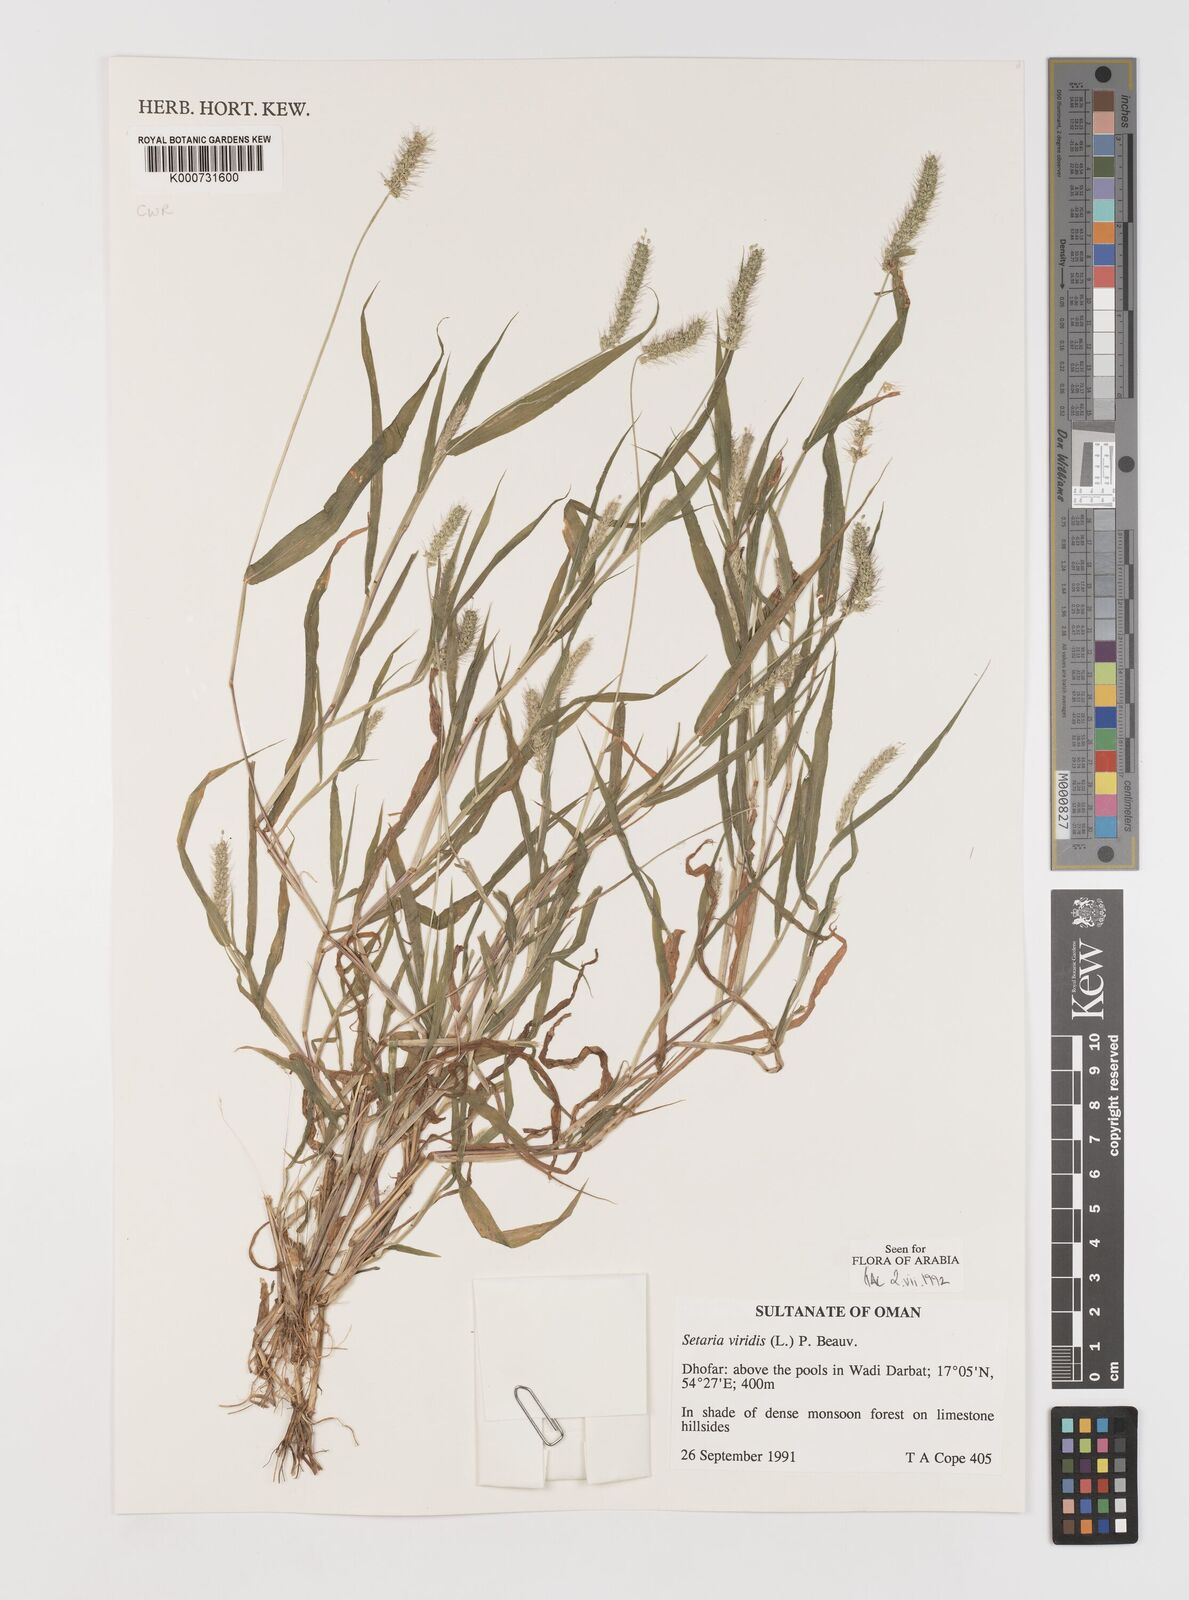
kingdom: Plantae
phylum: Tracheophyta
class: Liliopsida
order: Poales
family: Poaceae
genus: Setaria
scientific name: Setaria viridis
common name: Green bristlegrass
